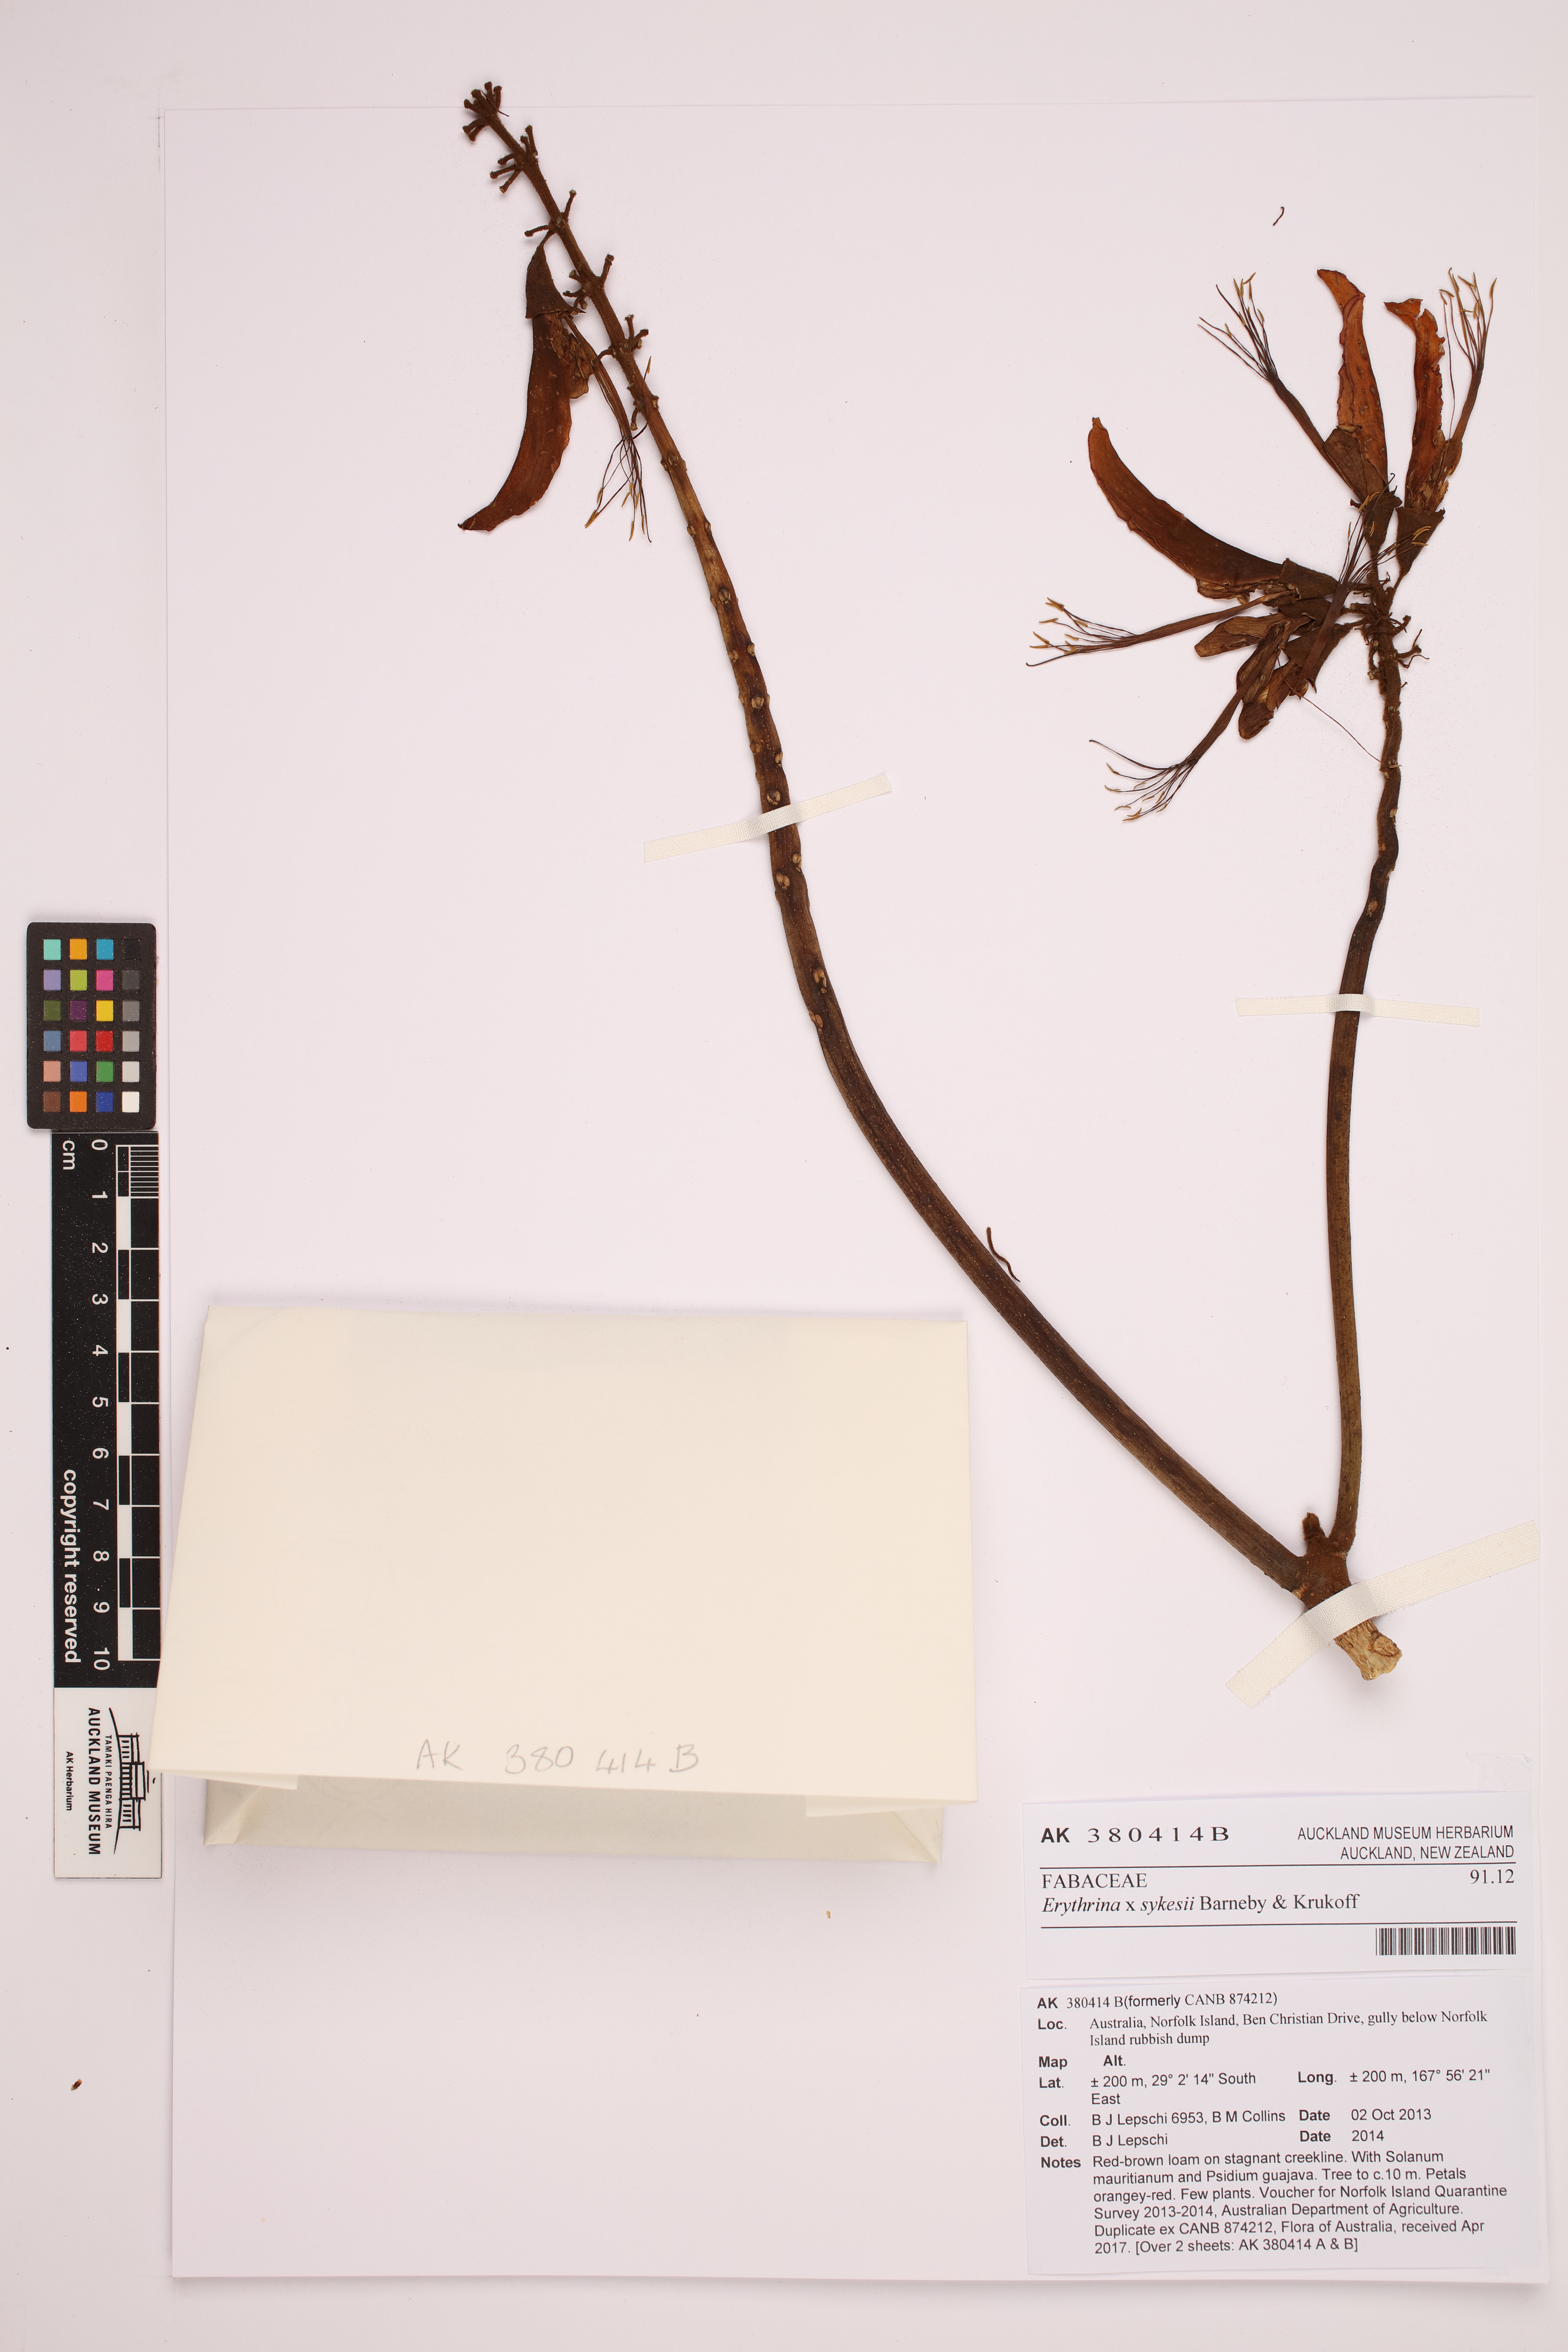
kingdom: Plantae
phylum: Tracheophyta
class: Magnoliopsida
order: Fabales
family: Fabaceae
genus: Erythrina
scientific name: Erythrina sykesii
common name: Coraltree
